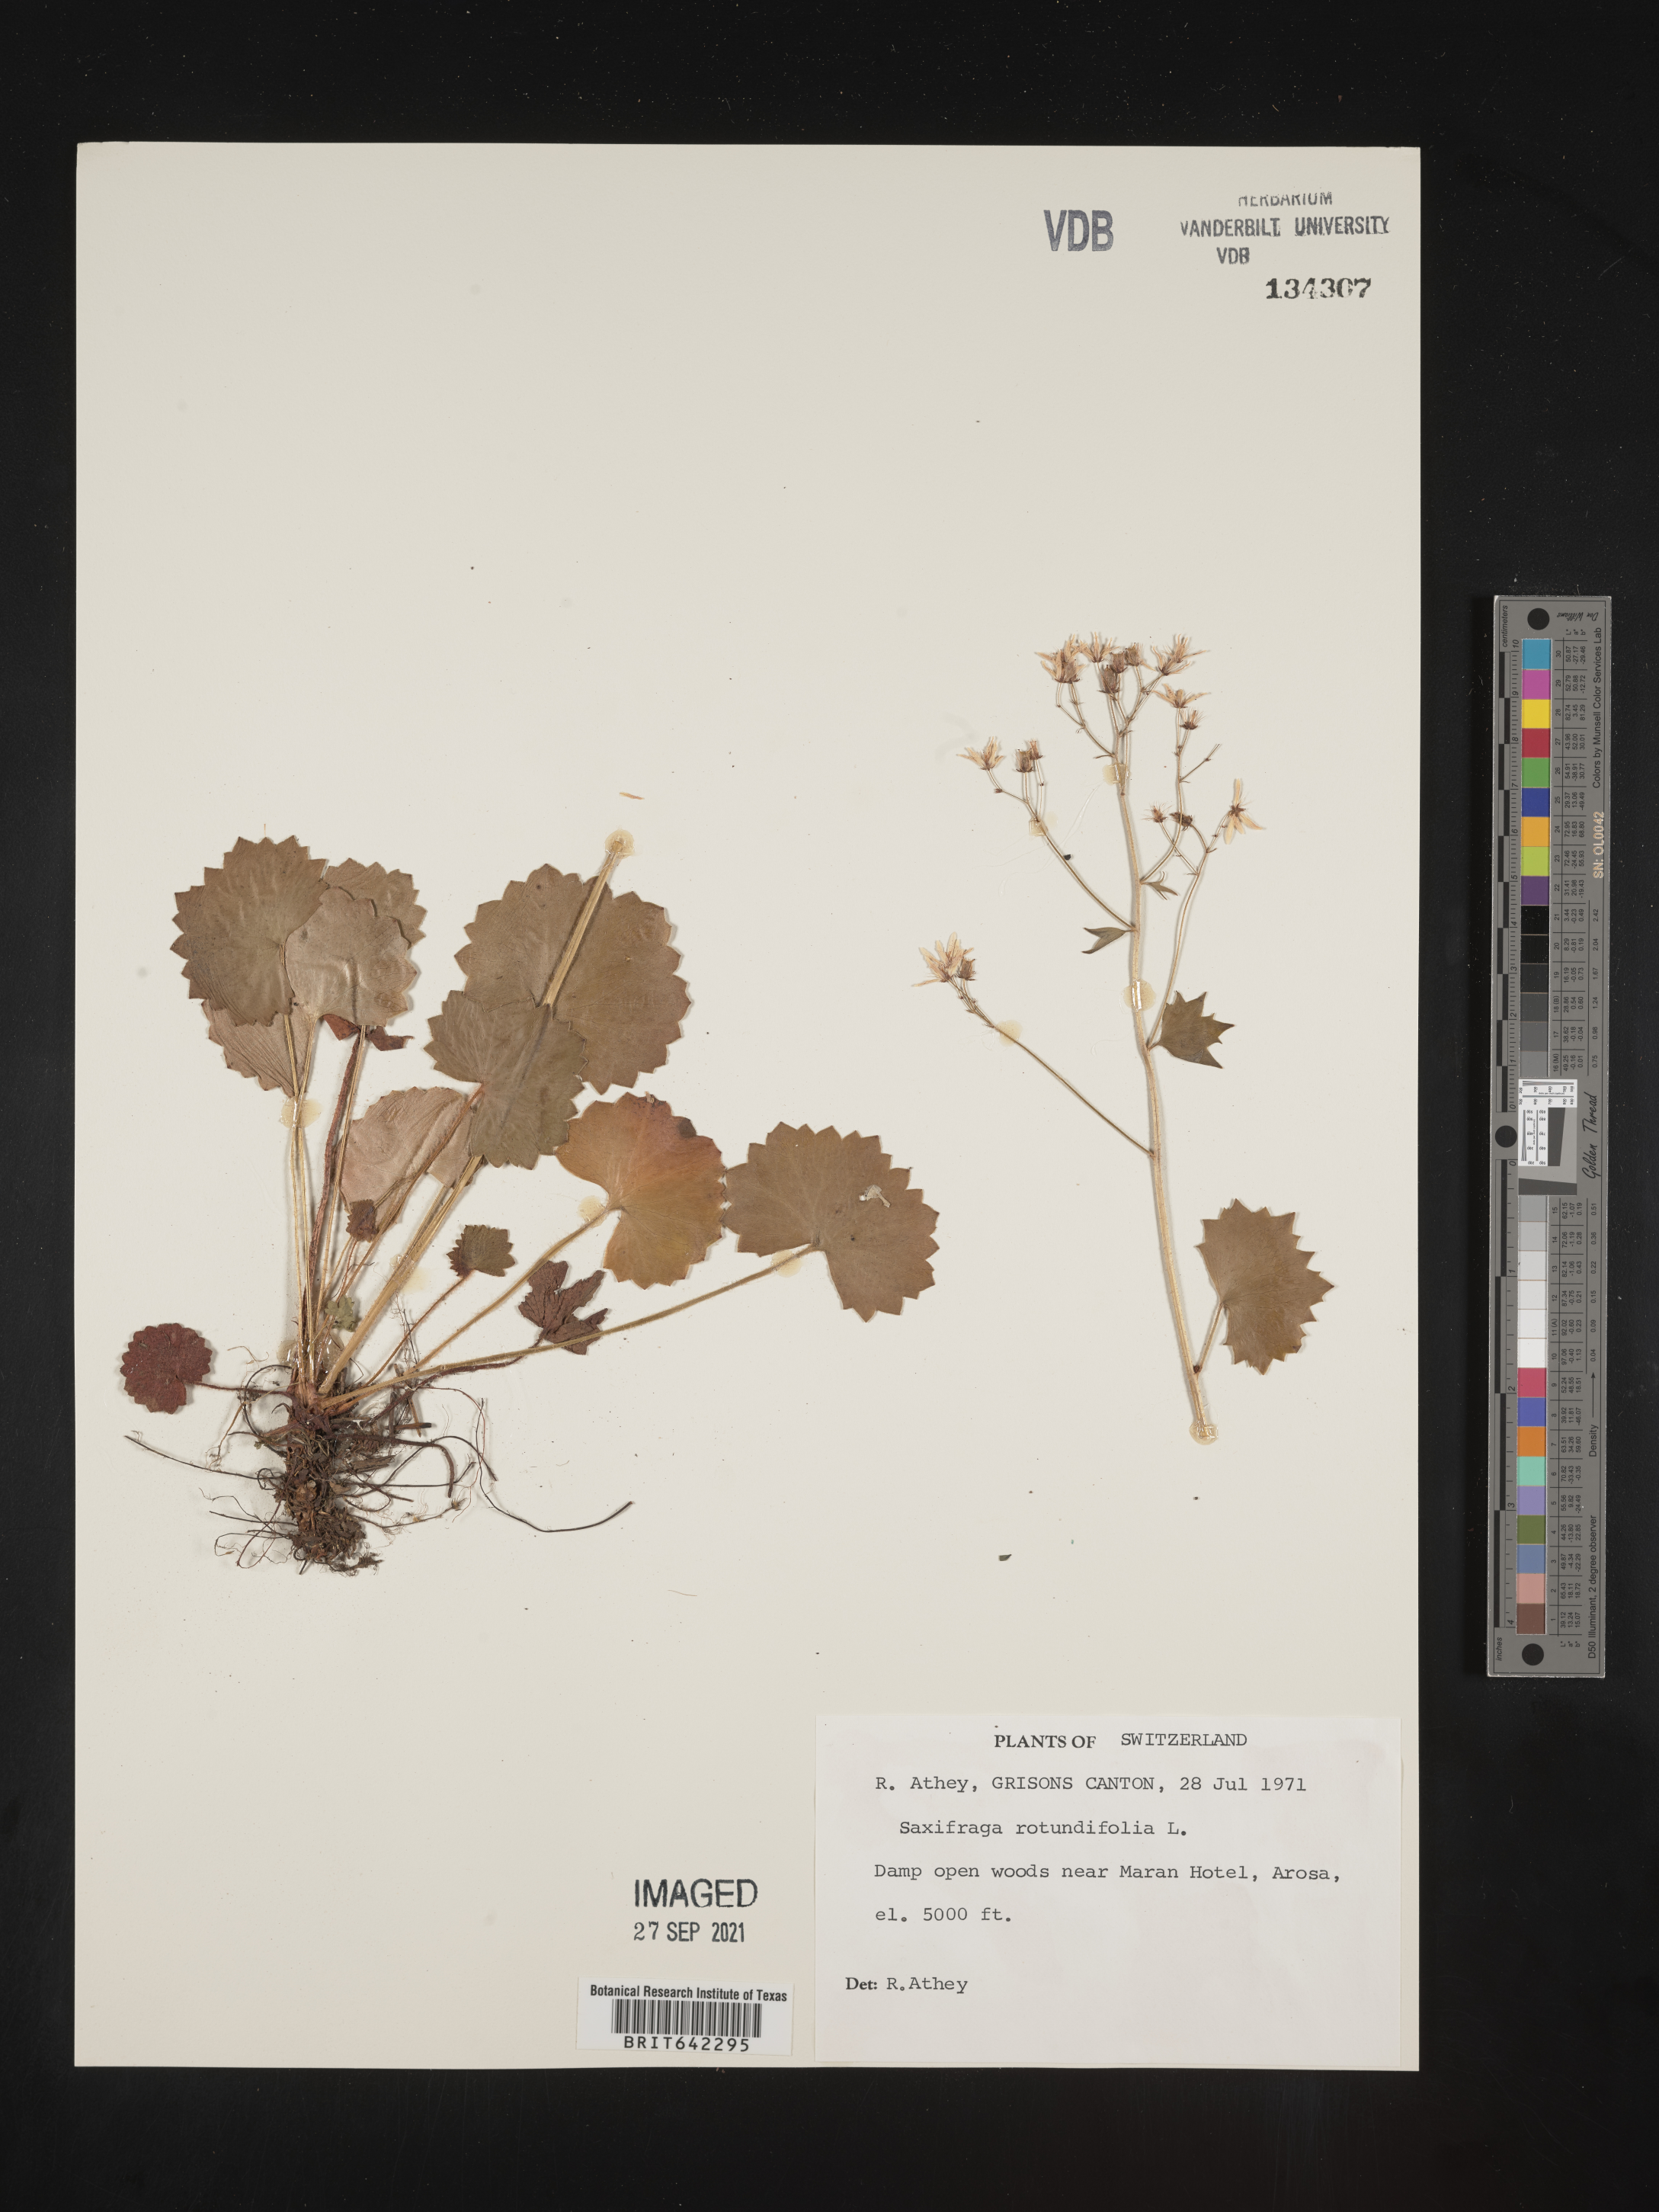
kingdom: Plantae
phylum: Tracheophyta
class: Magnoliopsida
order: Saxifragales
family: Saxifragaceae
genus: Saxifraga
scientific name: Saxifraga
